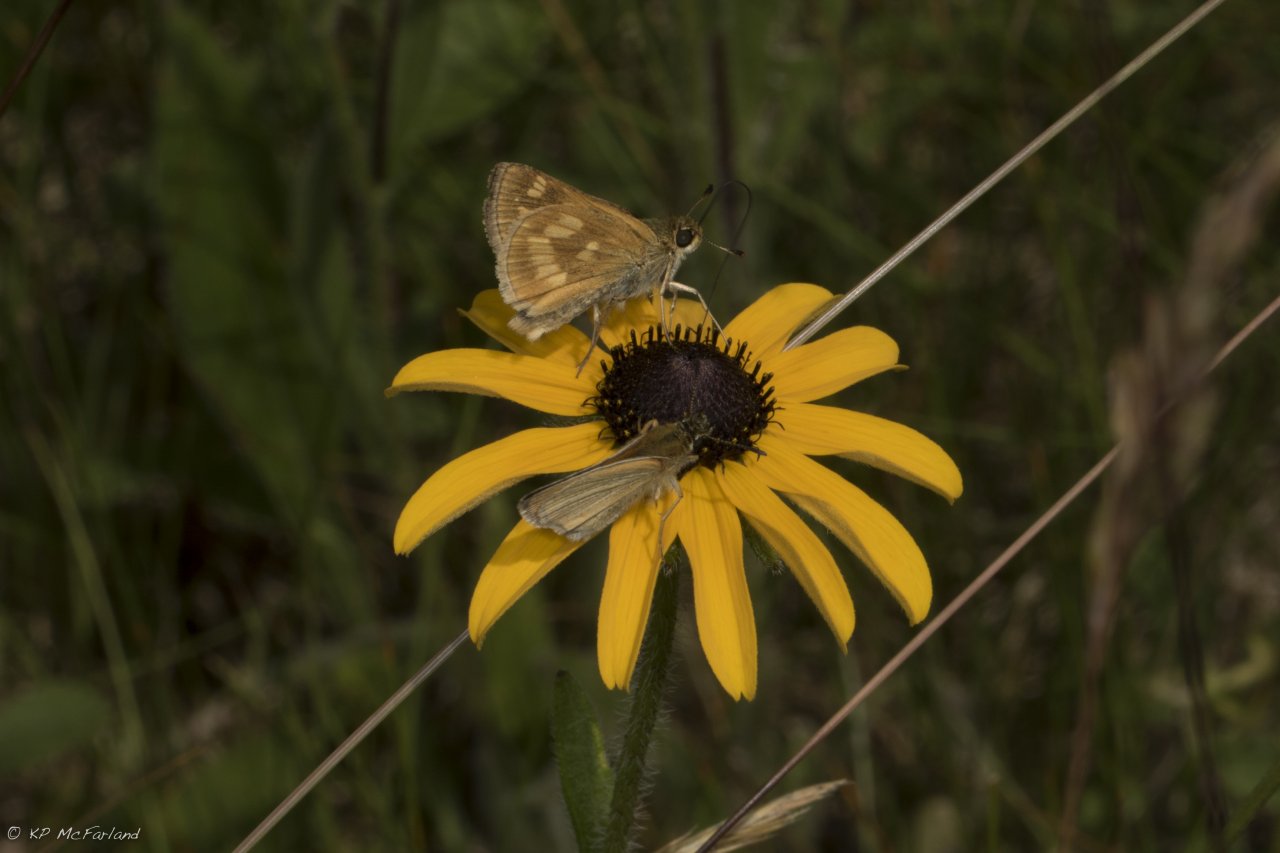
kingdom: Animalia
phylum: Arthropoda
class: Insecta
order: Lepidoptera
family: Hesperiidae
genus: Polites
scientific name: Polites
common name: Long Dash Skipper
